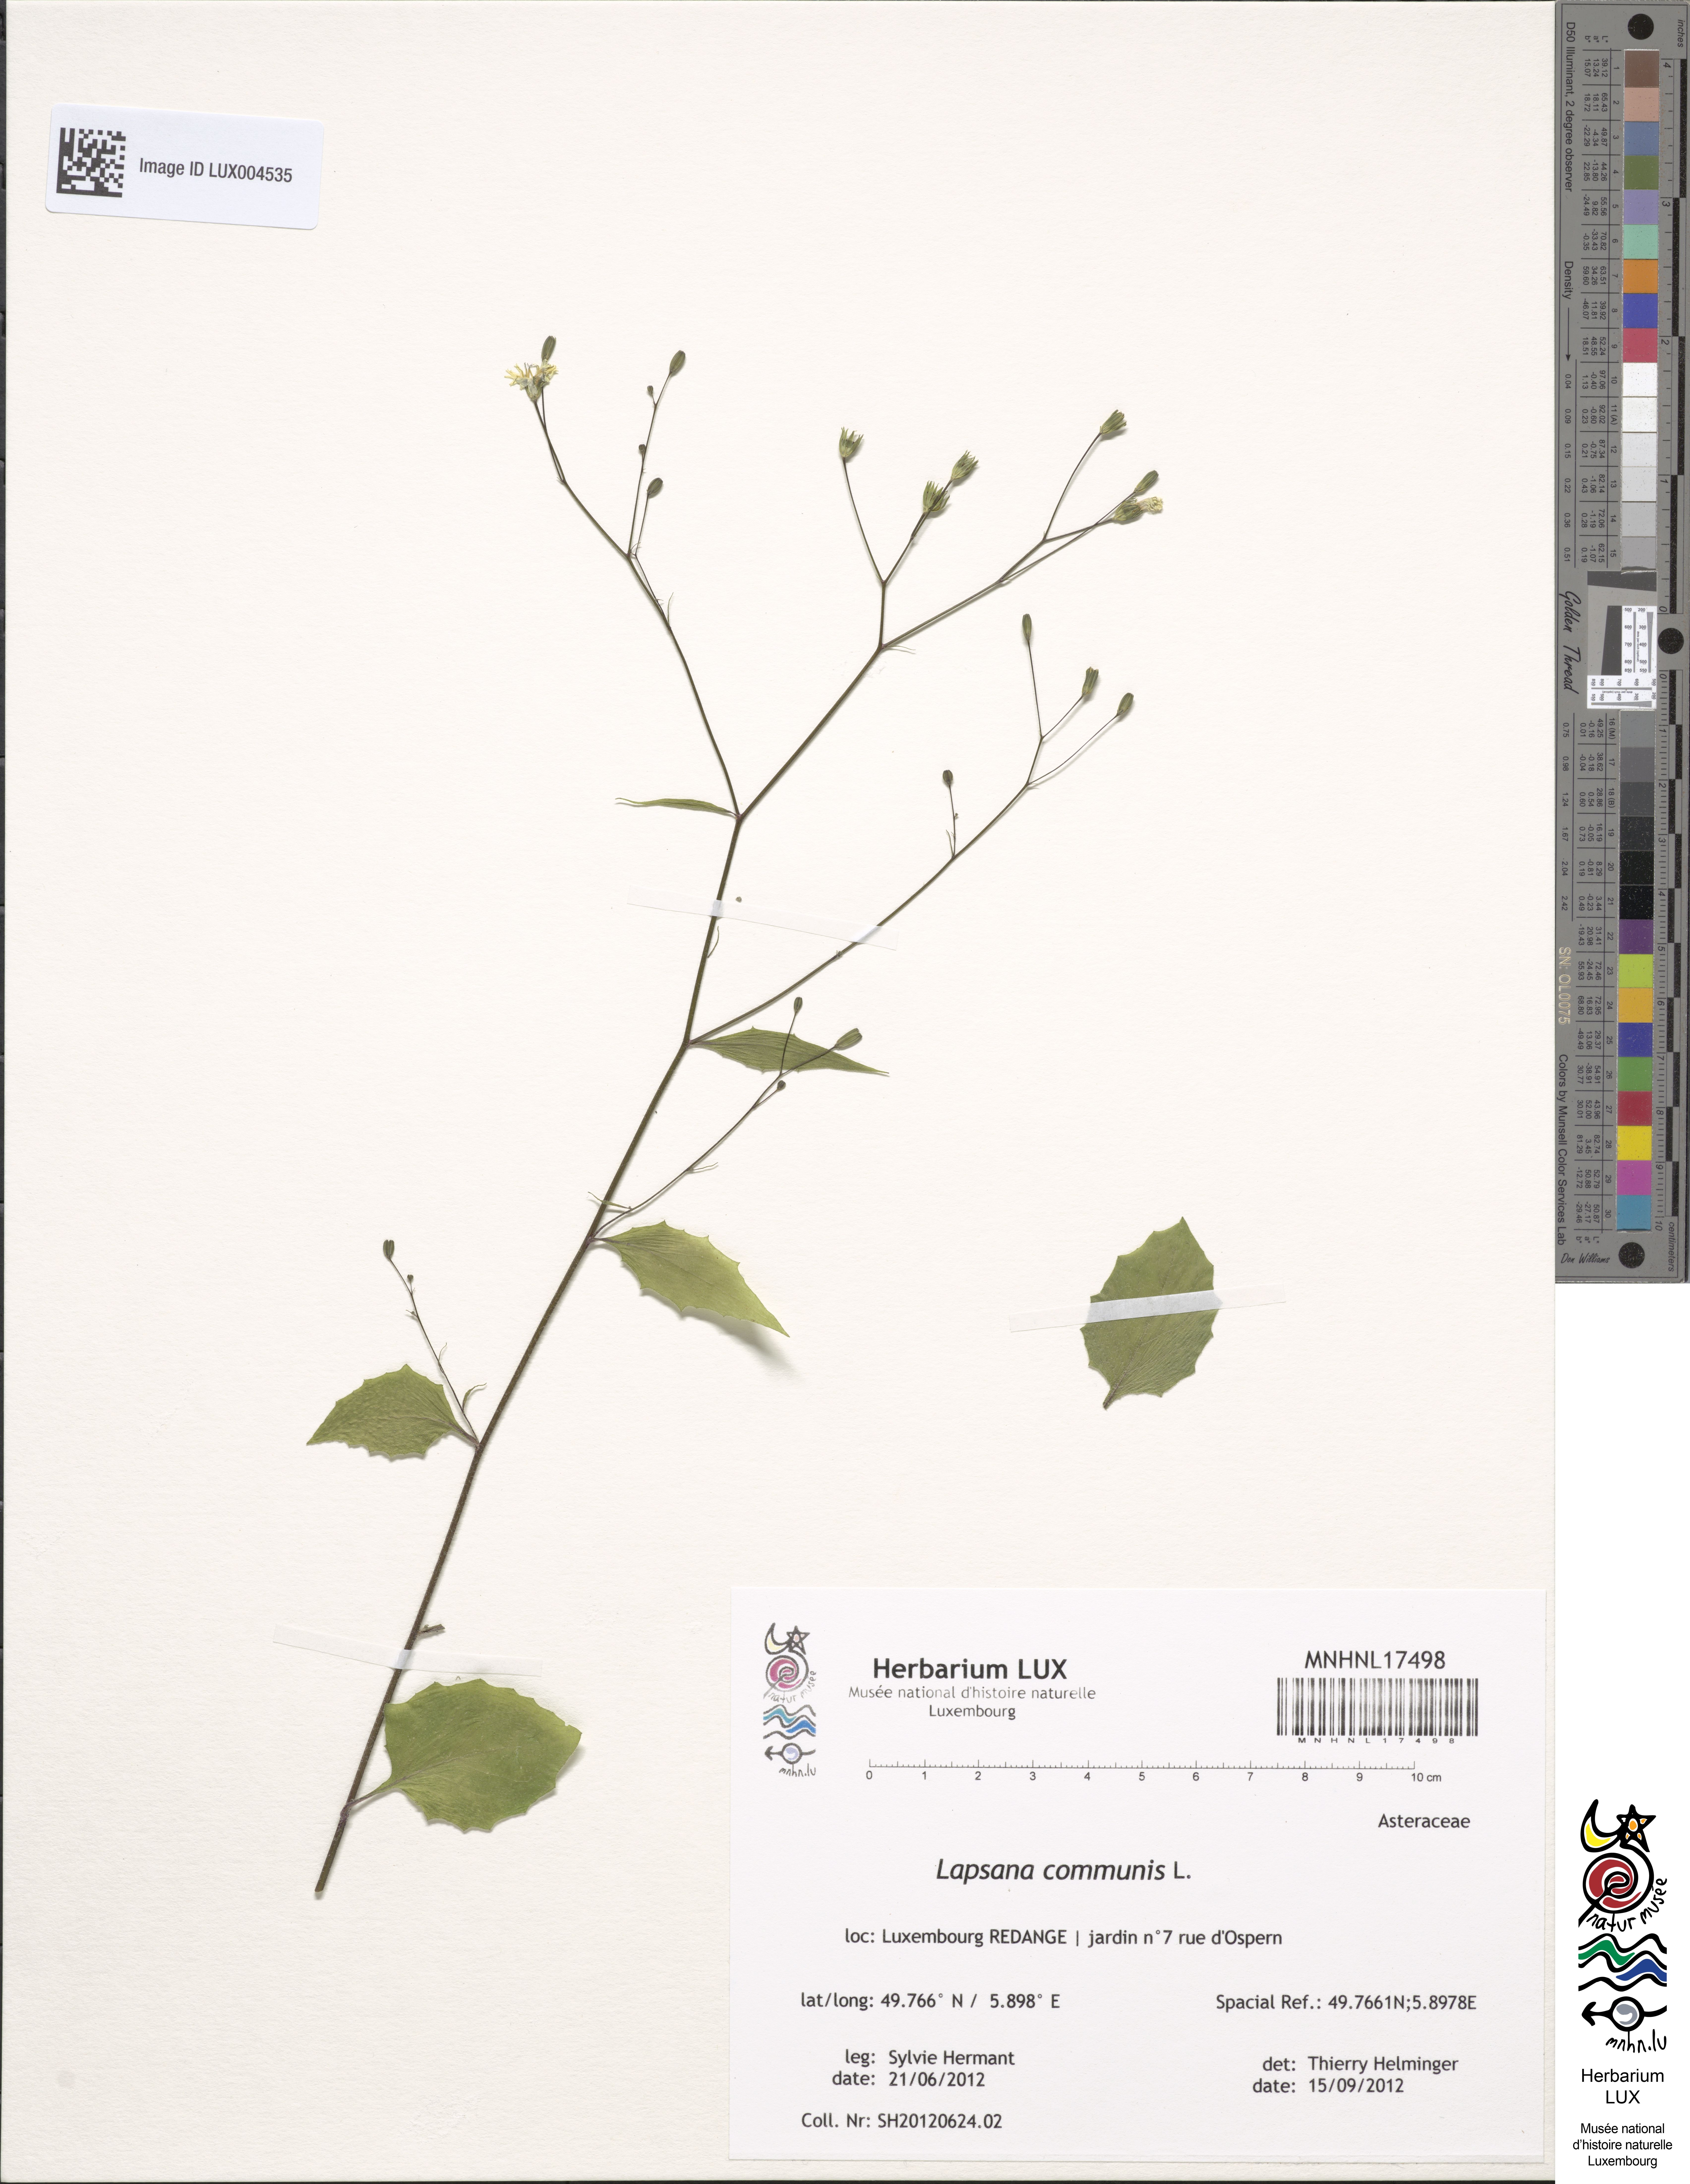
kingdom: Plantae
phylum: Tracheophyta
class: Magnoliopsida
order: Asterales
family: Asteraceae
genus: Lapsana
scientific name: Lapsana communis
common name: Nipplewort
